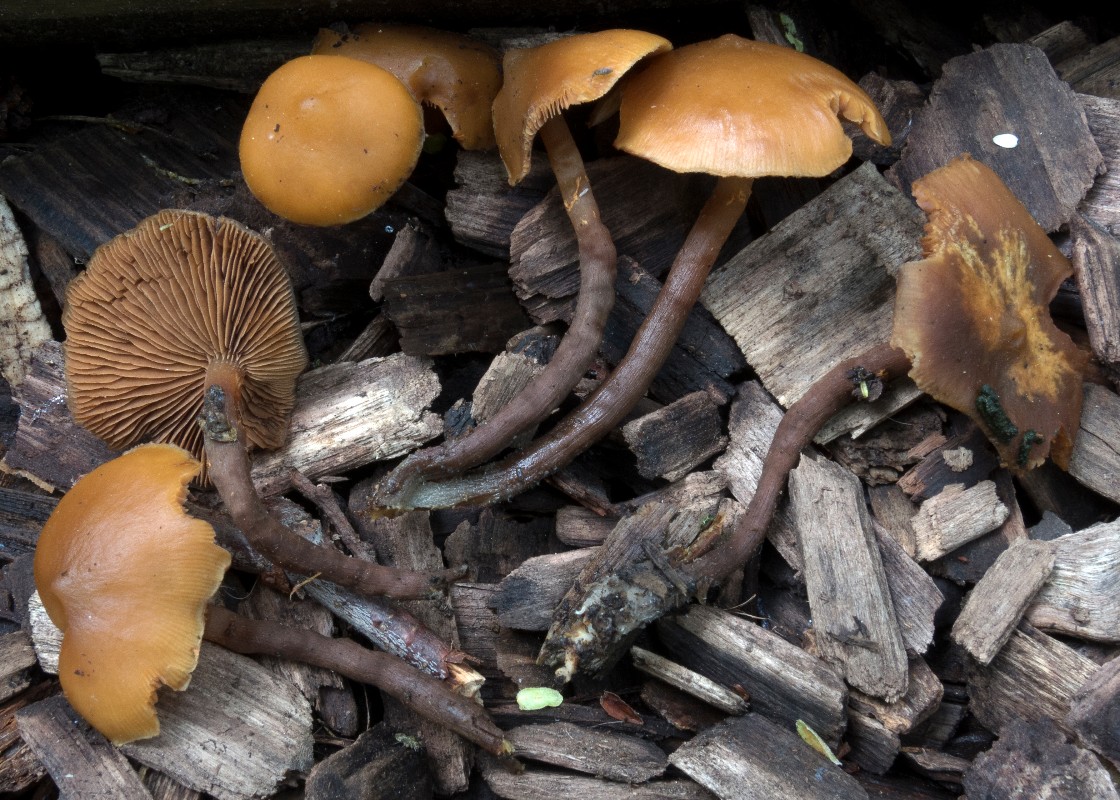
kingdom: Fungi
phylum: Basidiomycota
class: Agaricomycetes
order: Agaricales
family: Strophariaceae
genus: Kuehneromyces
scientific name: Kuehneromyces
